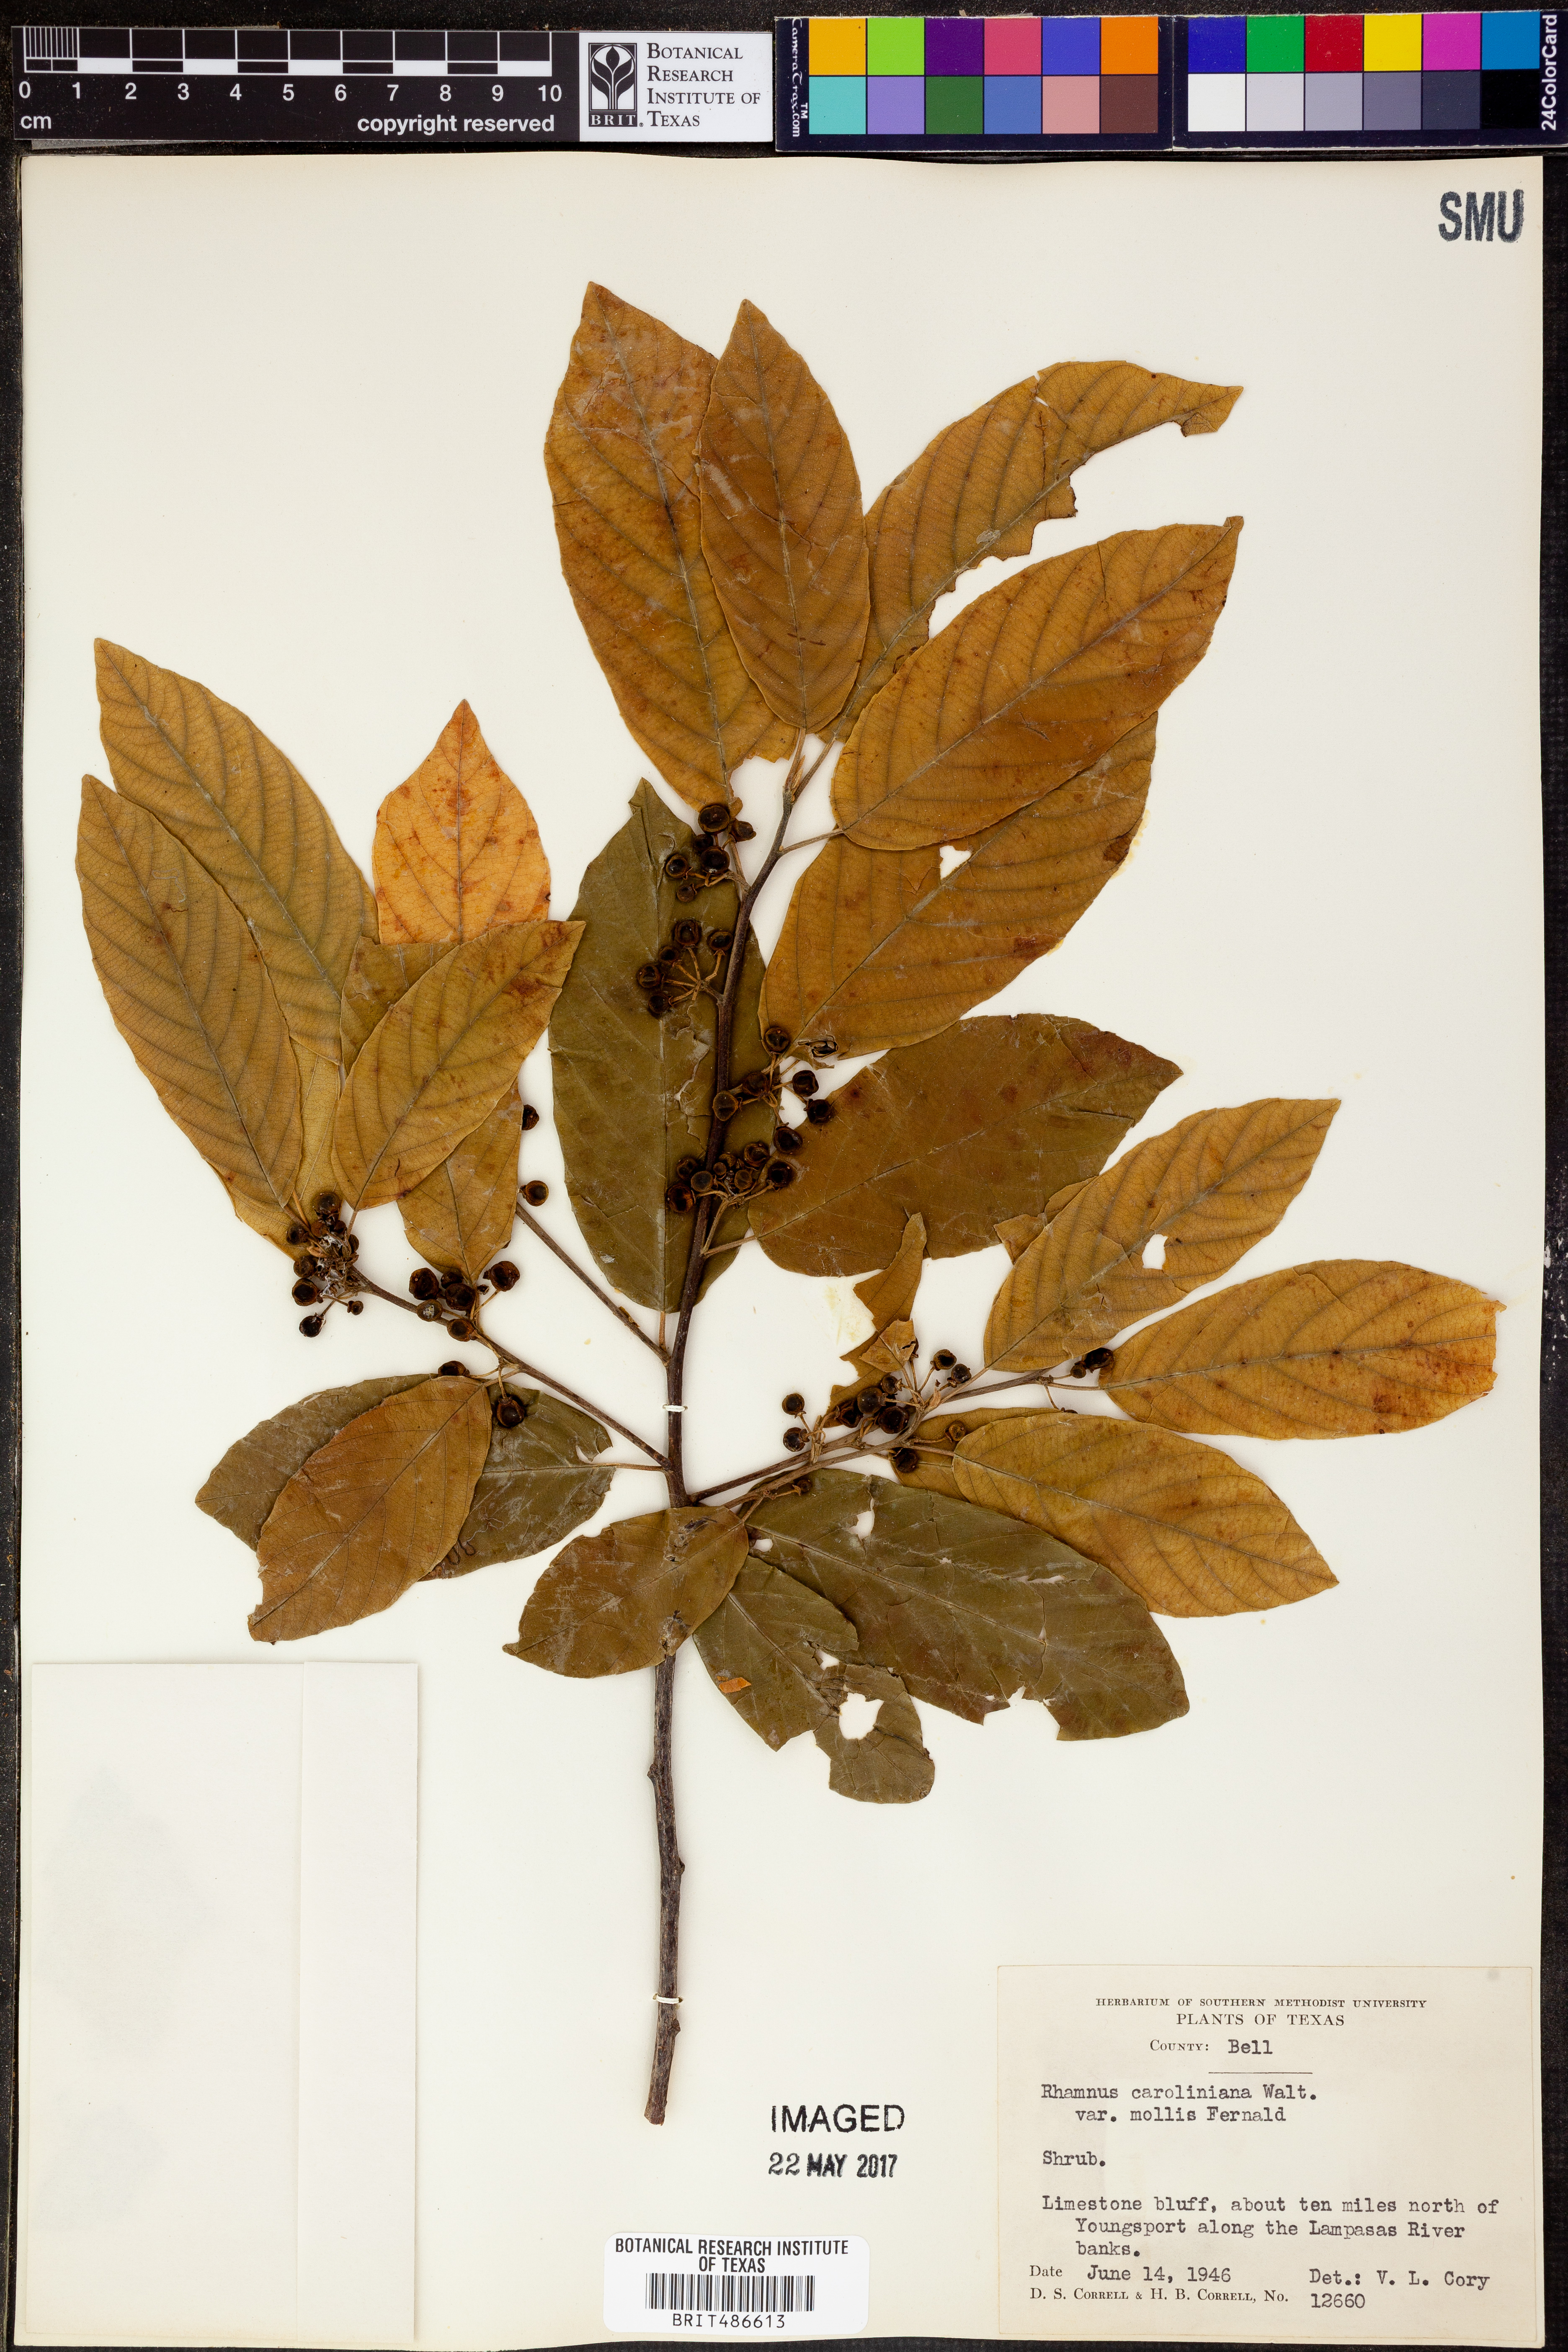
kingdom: Plantae
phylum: Tracheophyta
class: Magnoliopsida
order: Rosales
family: Rhamnaceae
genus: Frangula
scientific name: Frangula caroliniana
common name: Carolina buckthorn
